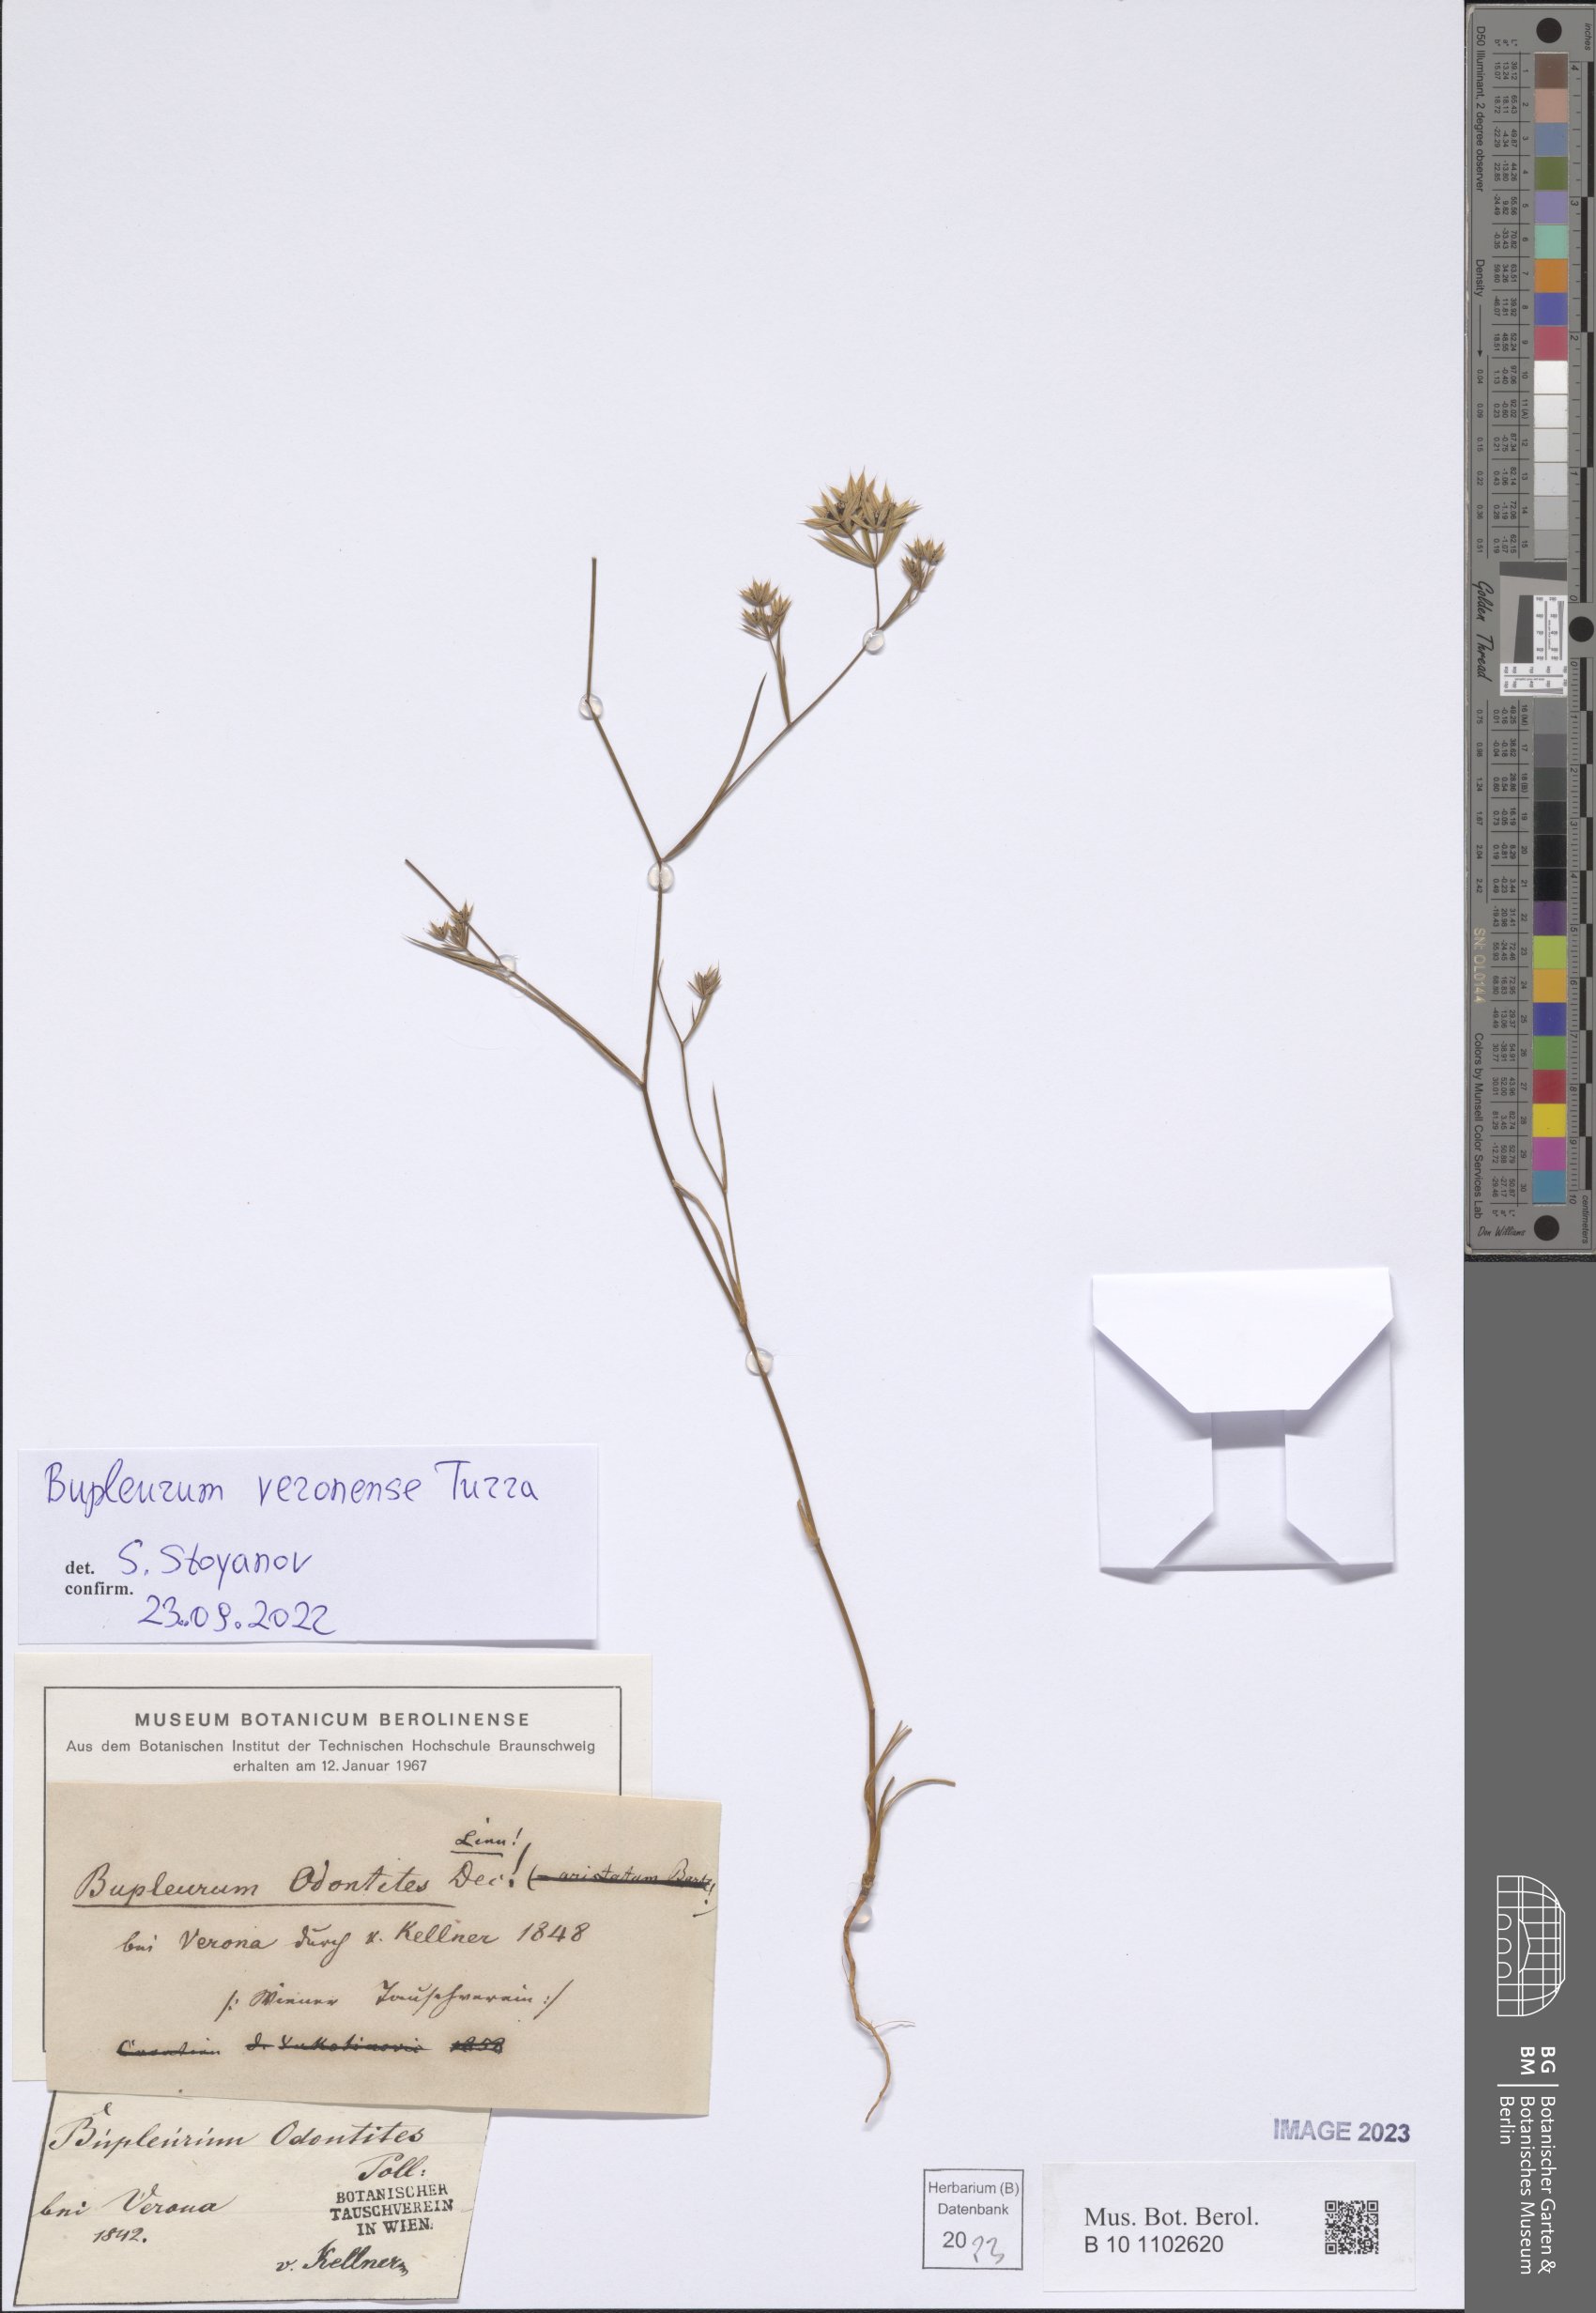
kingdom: Plantae
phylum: Tracheophyta
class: Magnoliopsida
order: Apiales
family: Apiaceae
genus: Bupleurum
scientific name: Bupleurum veronense
